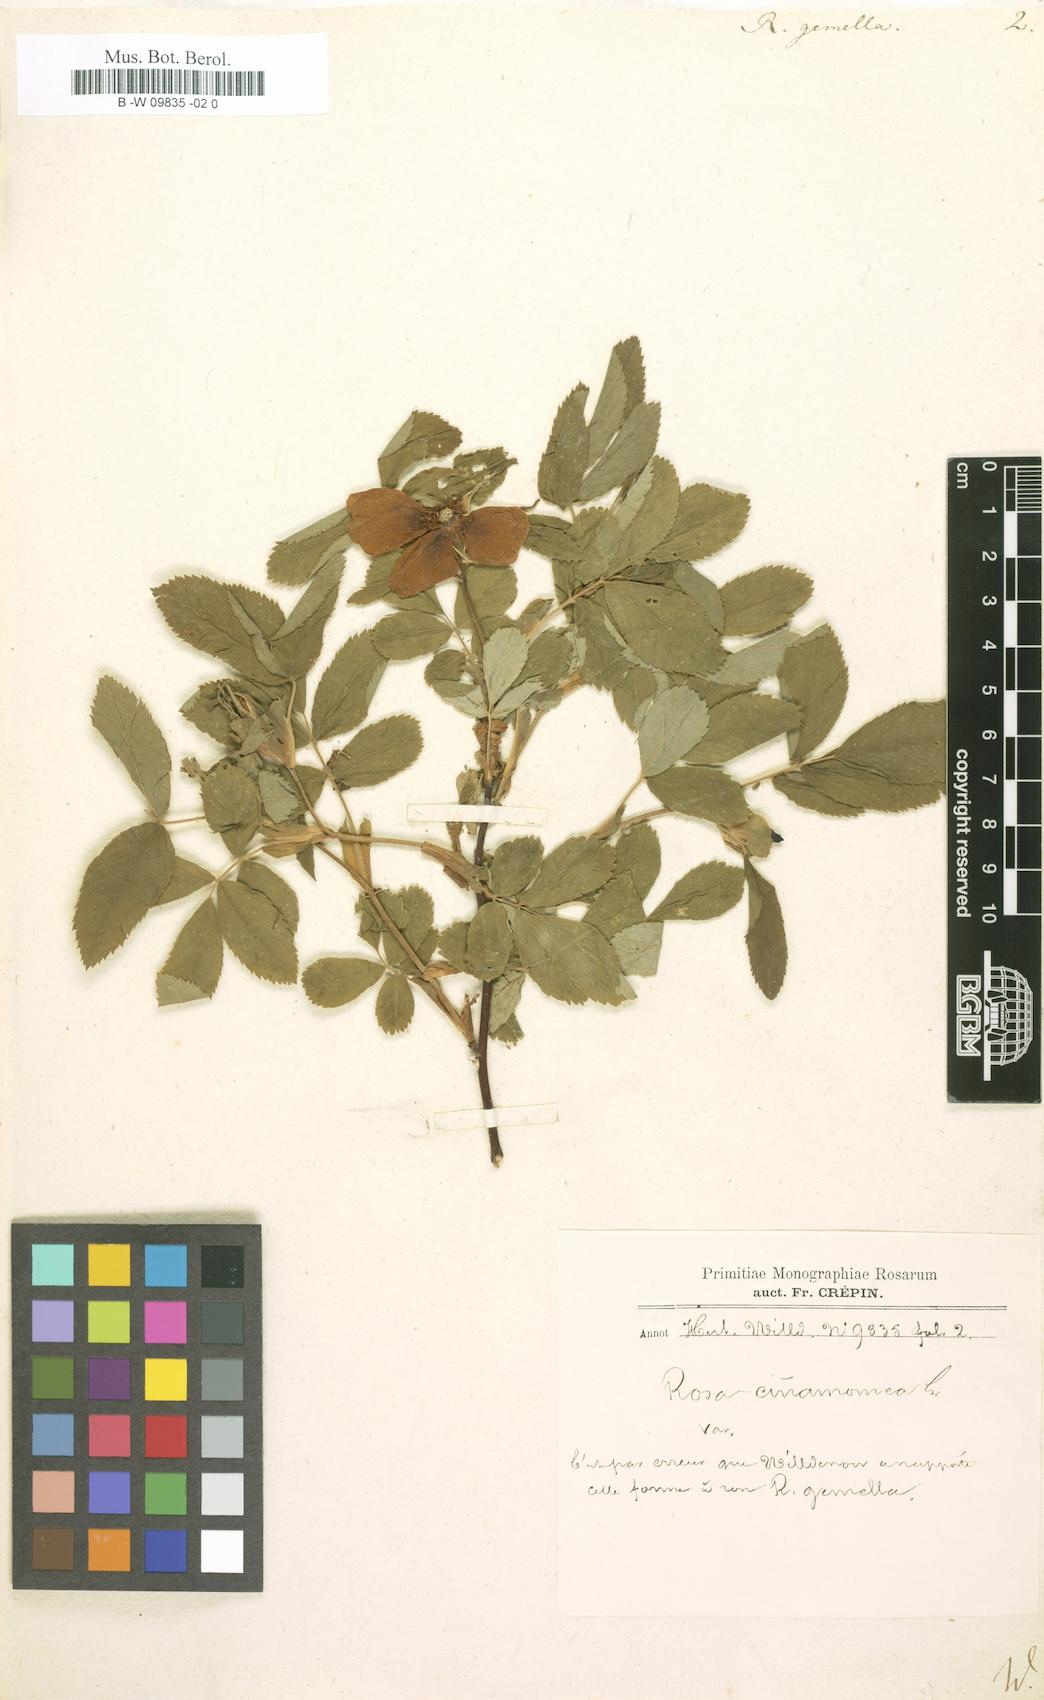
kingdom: Plantae
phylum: Tracheophyta
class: Magnoliopsida
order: Rosales
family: Rosaceae
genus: Rosa
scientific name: Rosa
